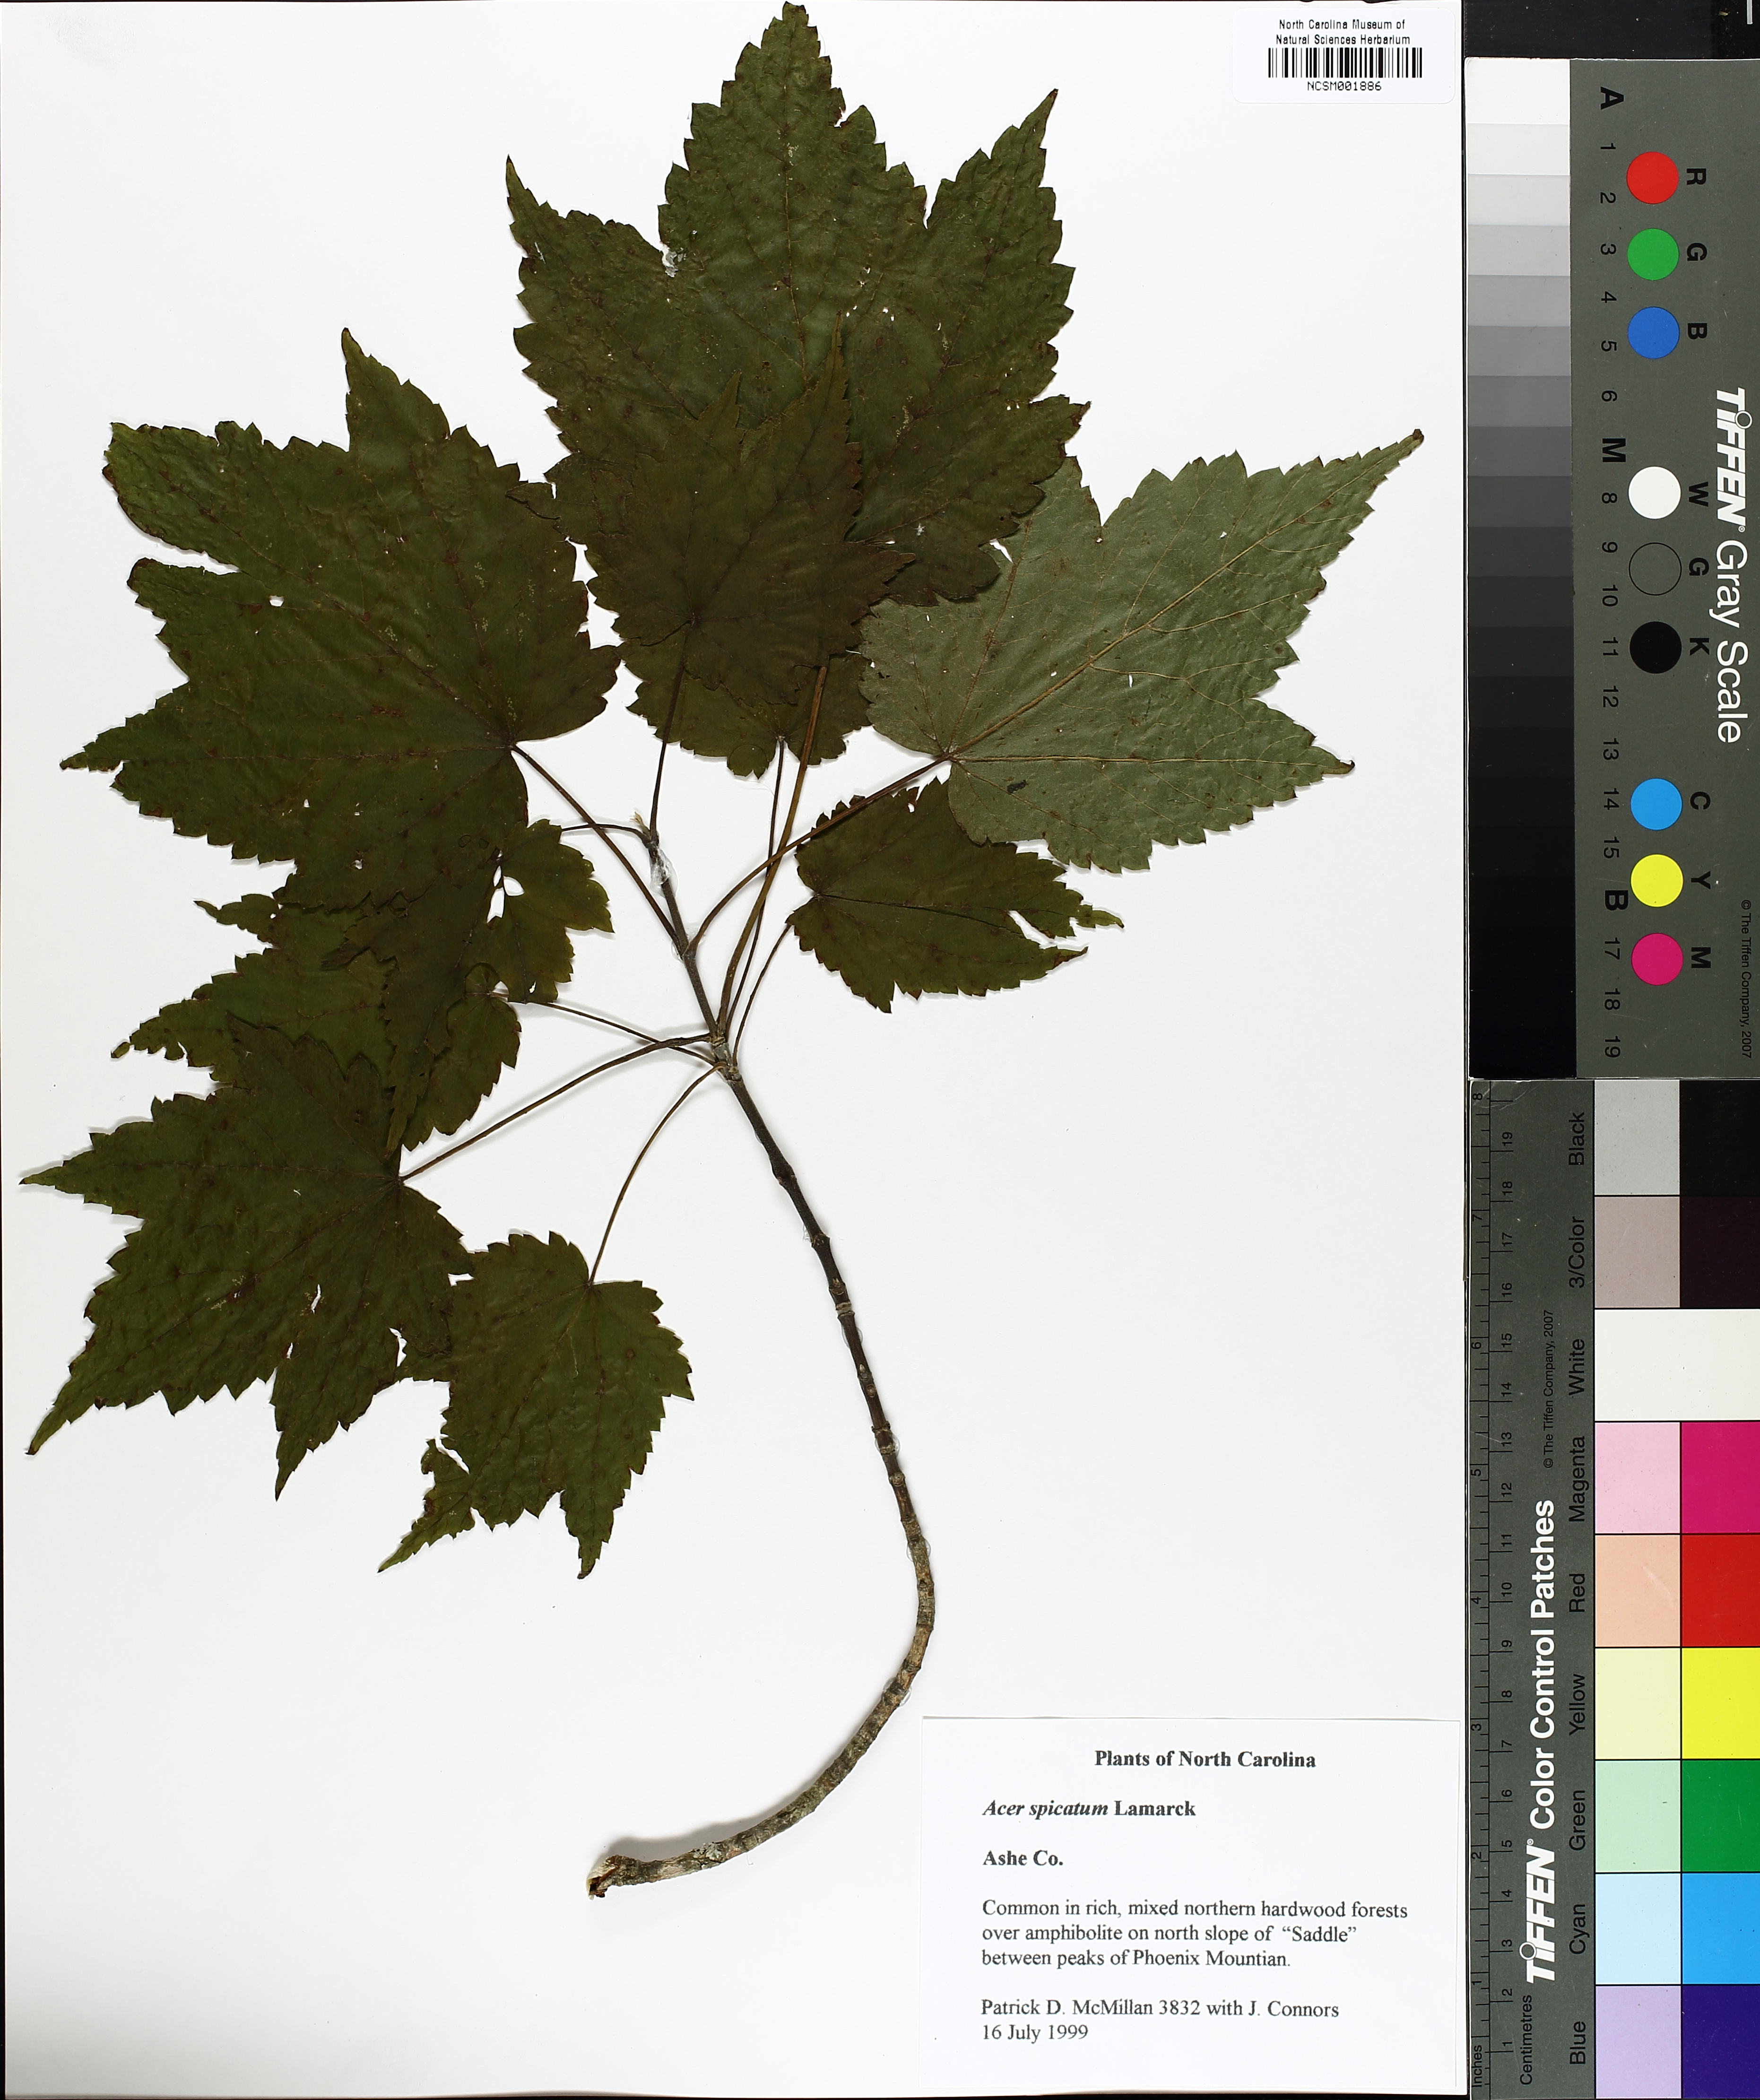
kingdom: Plantae
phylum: Tracheophyta
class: Magnoliopsida
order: Sapindales
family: Sapindaceae
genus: Acer
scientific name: Acer spicatum
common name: Mountain maple
